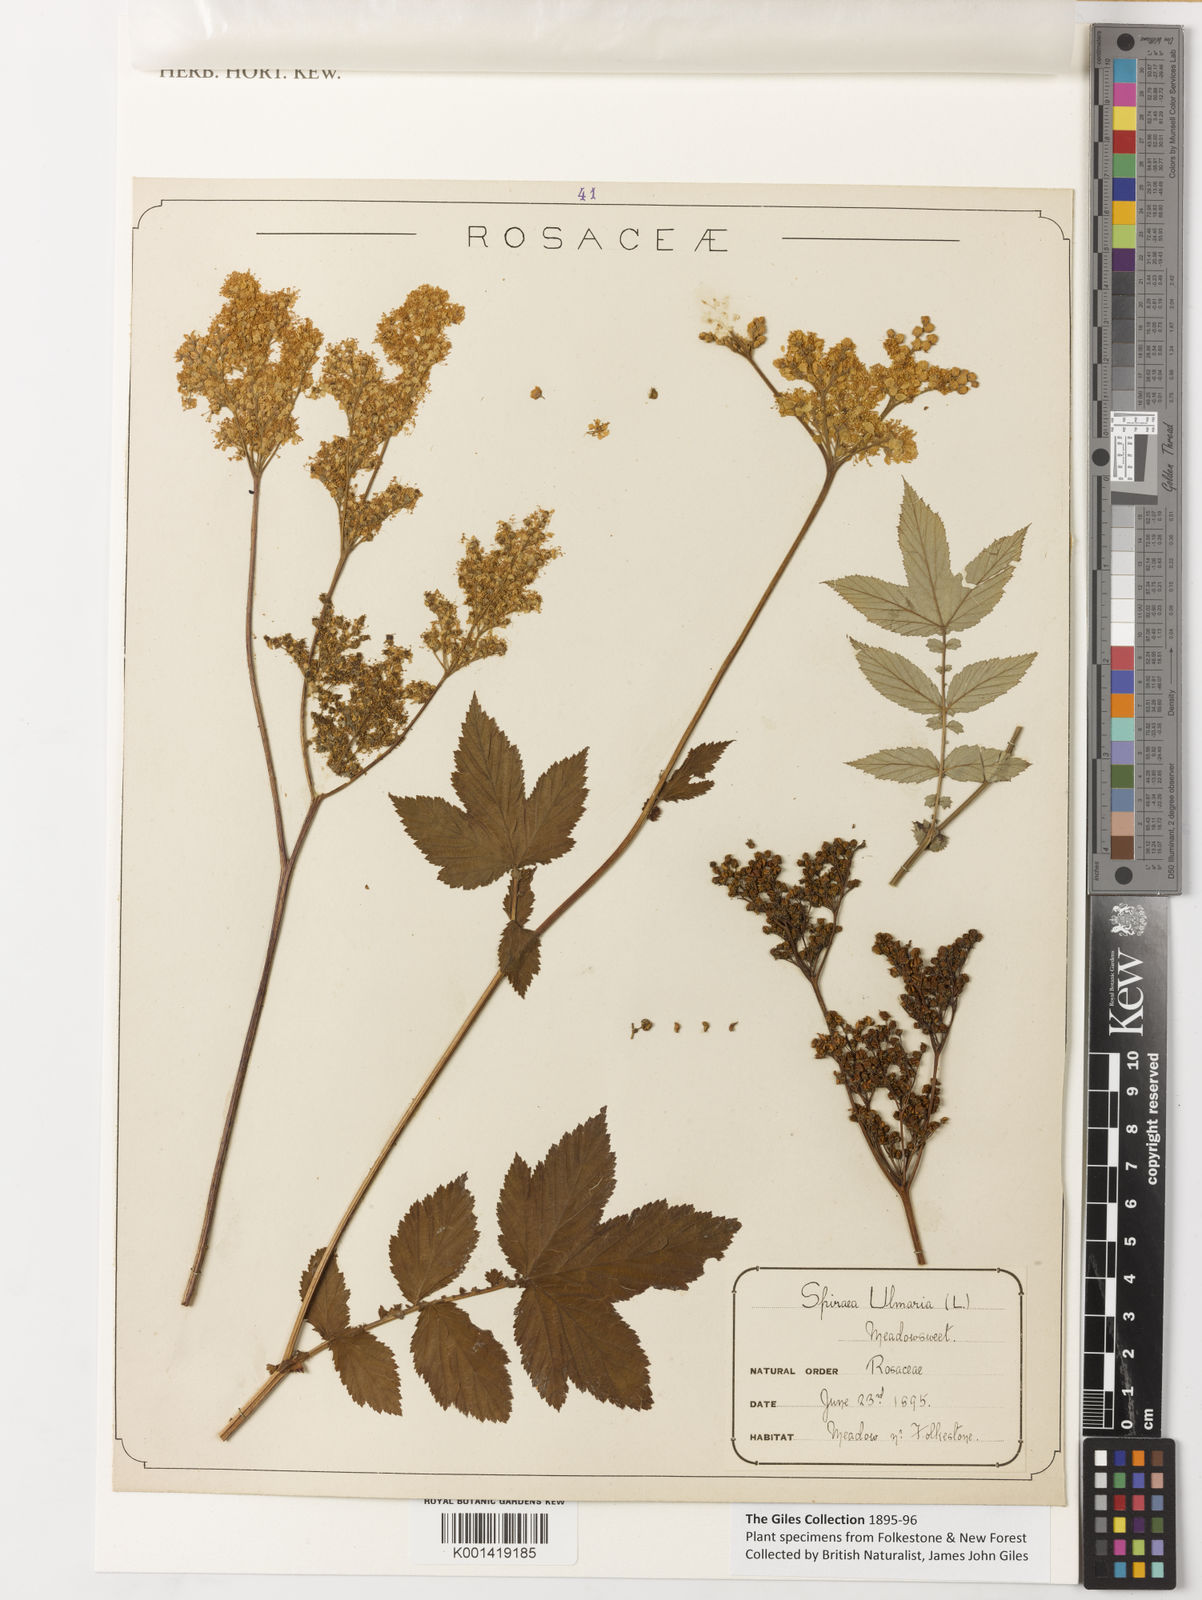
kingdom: Plantae
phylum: Tracheophyta
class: Magnoliopsida
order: Rosales
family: Rosaceae
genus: Filipendula
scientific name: Filipendula ulmaria
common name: Meadowsweet
